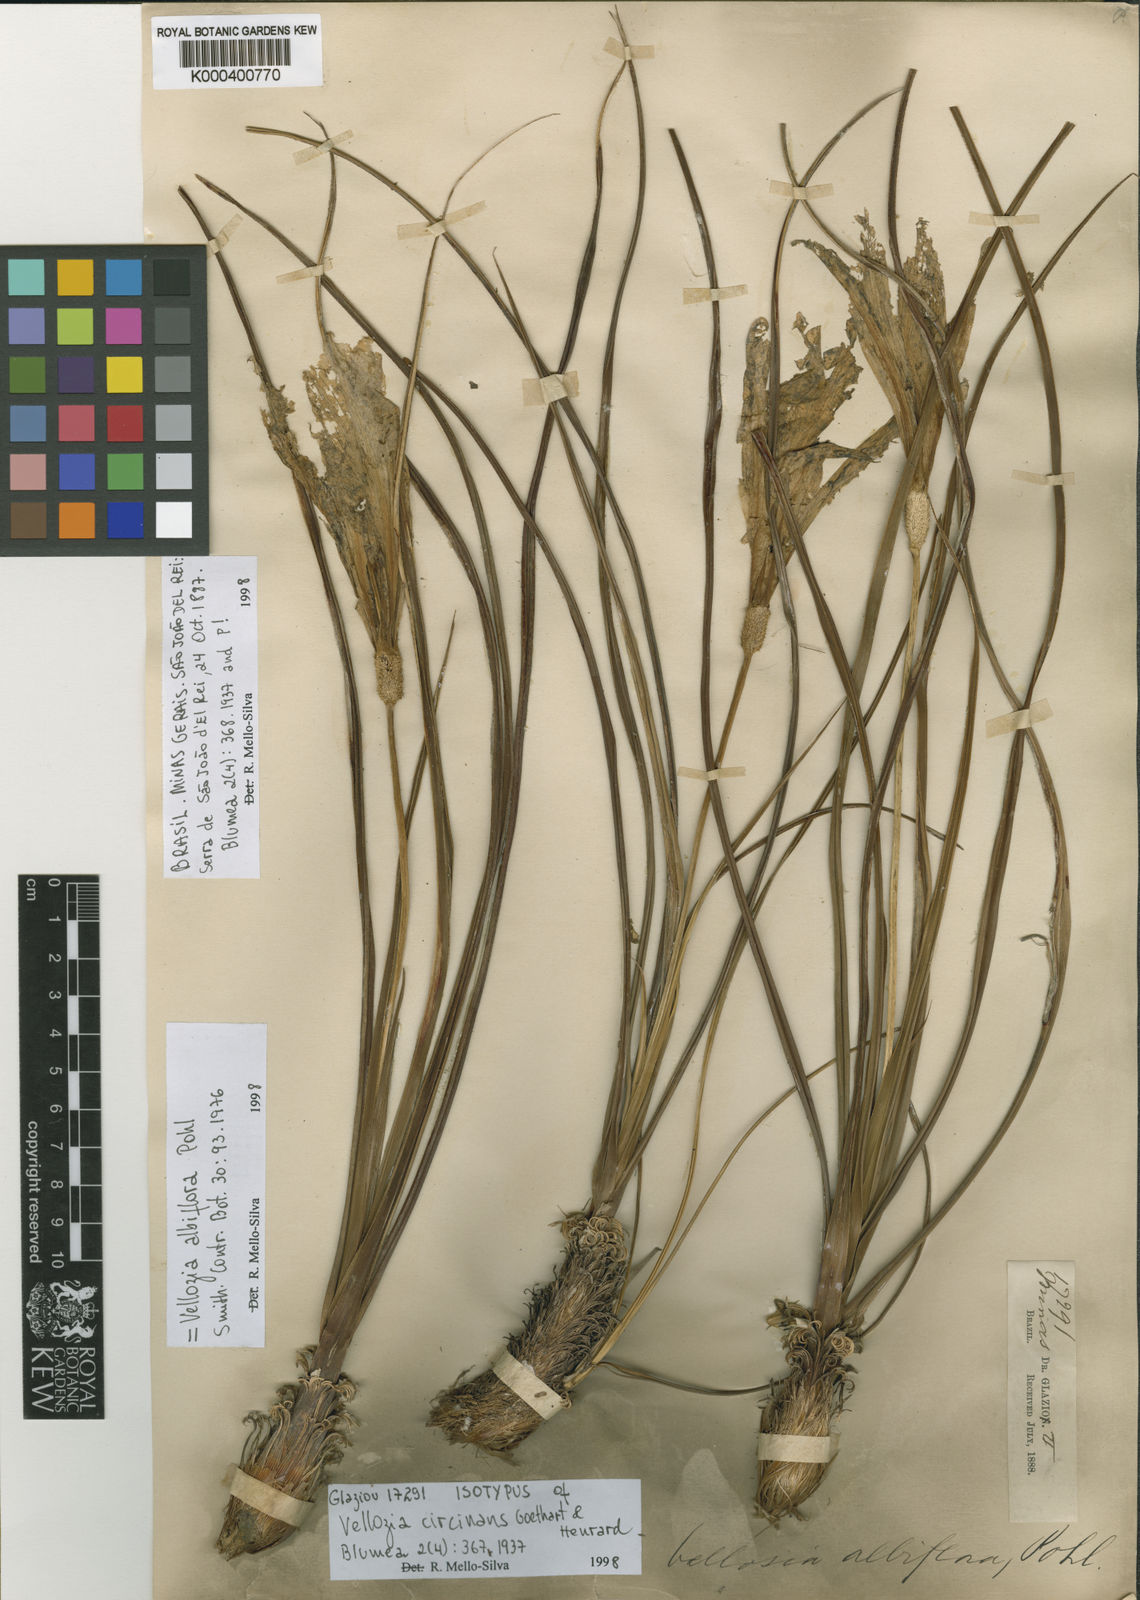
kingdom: Plantae
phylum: Tracheophyta
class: Liliopsida
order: Pandanales
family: Velloziaceae
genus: Vellozia
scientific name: Vellozia albiflora
